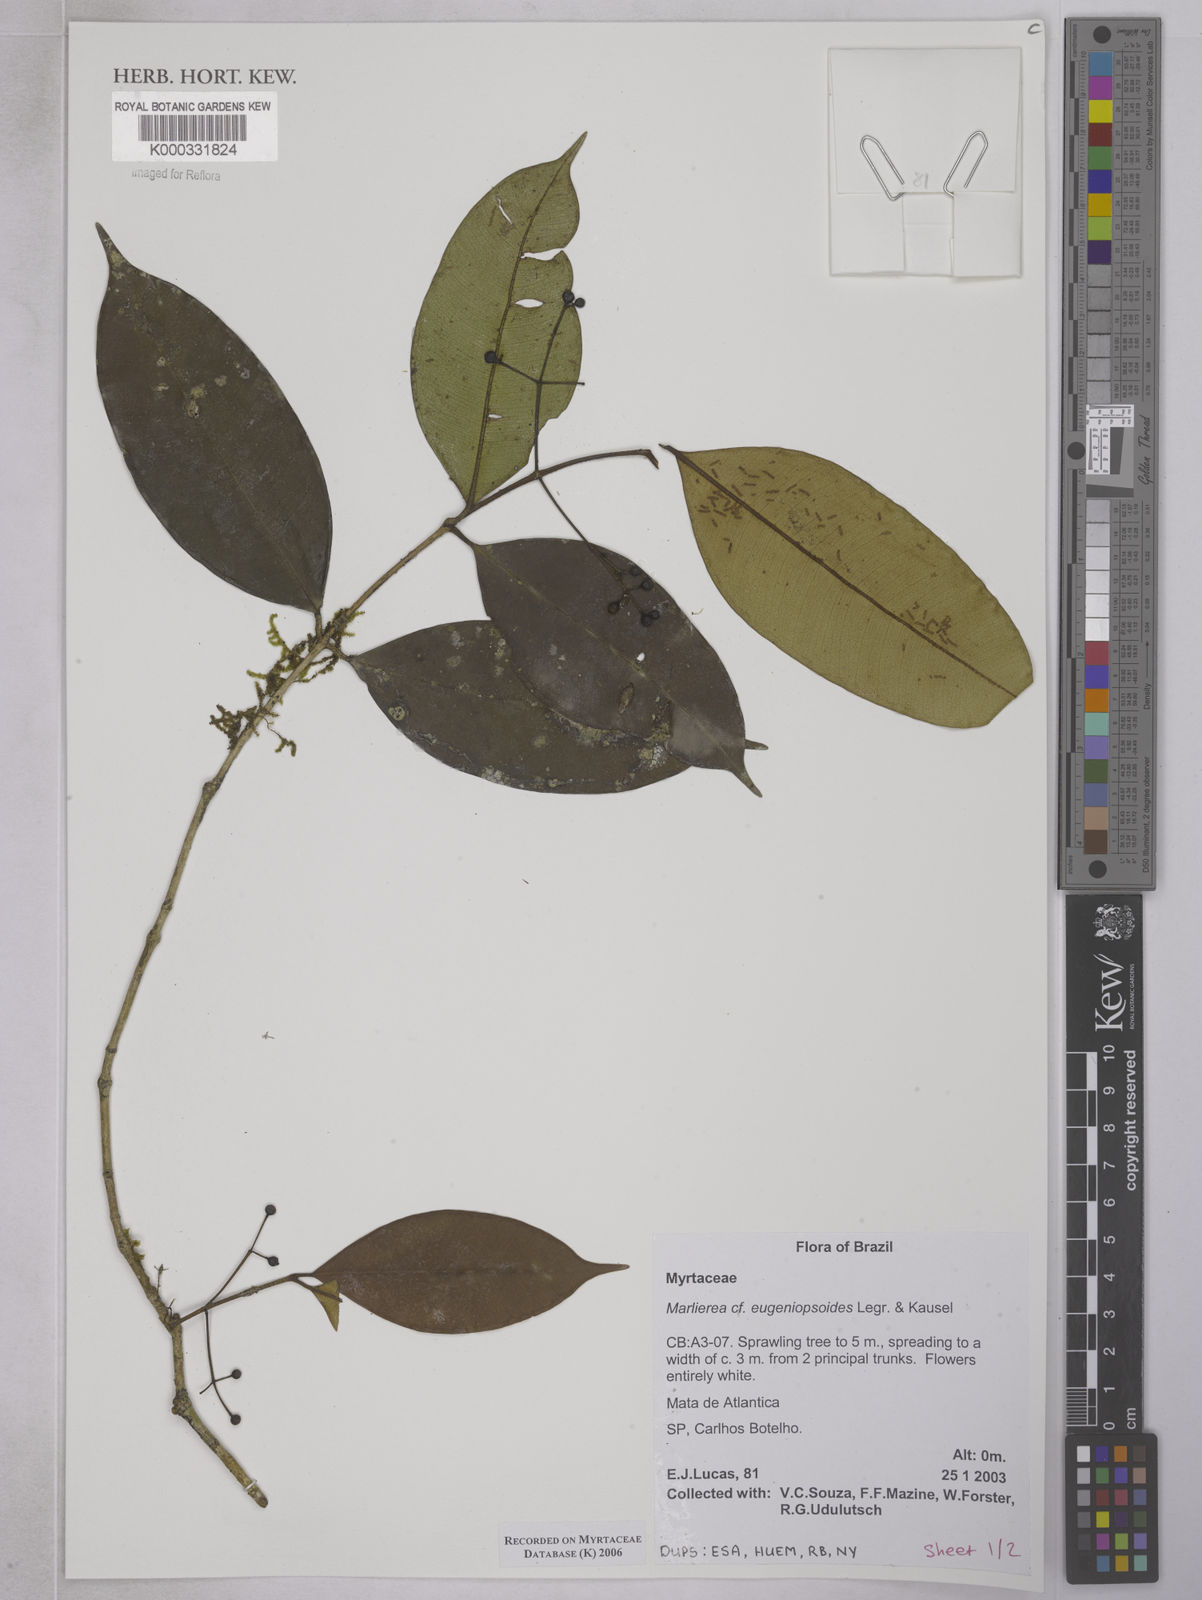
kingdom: Plantae
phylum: Tracheophyta
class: Magnoliopsida
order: Myrtales
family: Myrtaceae
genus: Myrcia
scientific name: Myrcia eugeniopsoides
